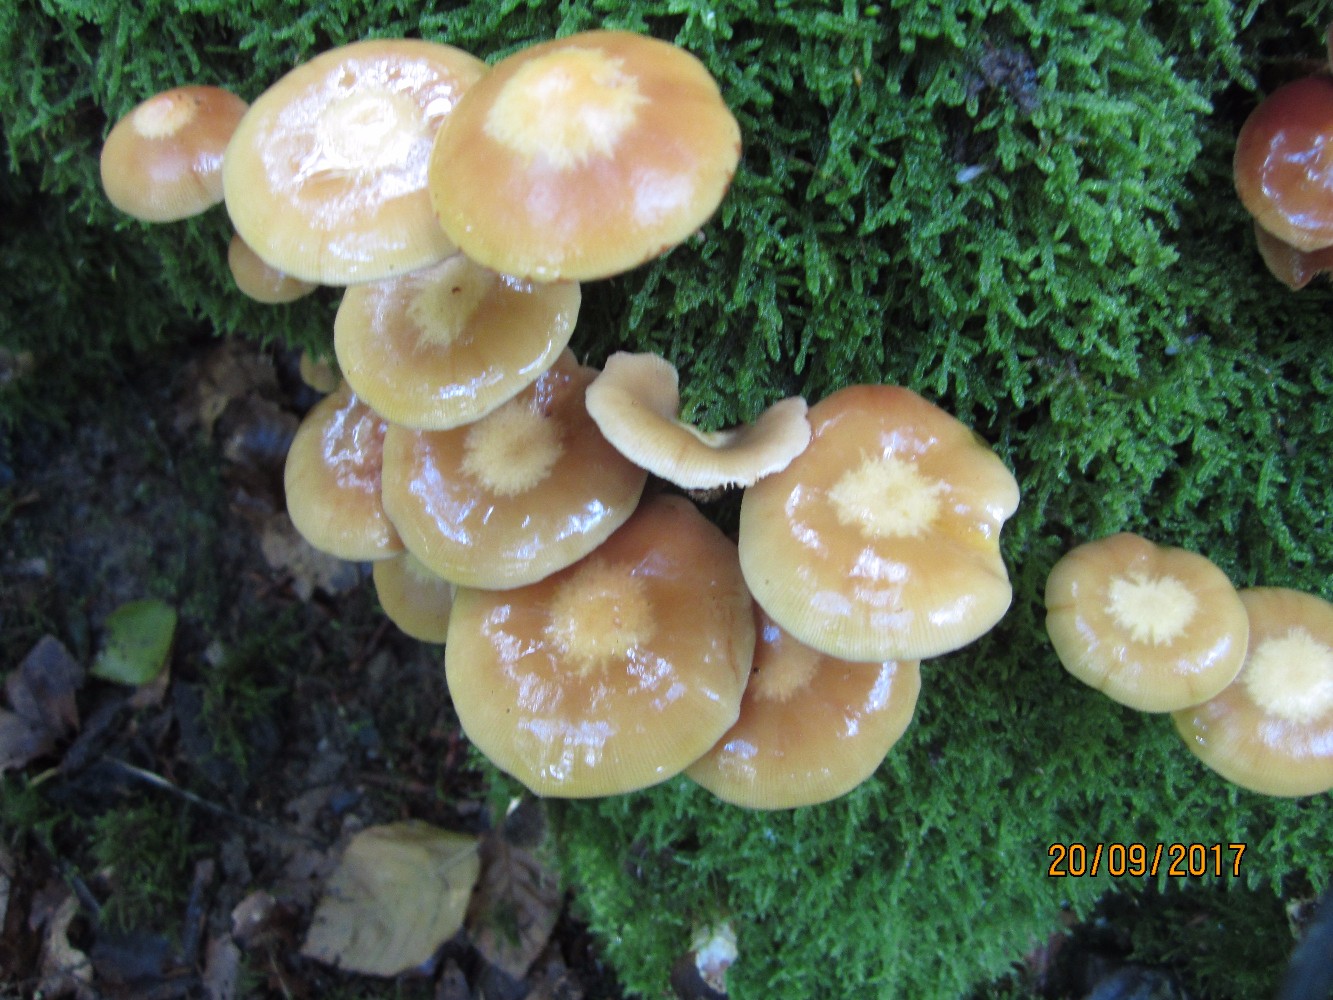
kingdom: Fungi
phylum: Basidiomycota
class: Agaricomycetes
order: Agaricales
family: Strophariaceae
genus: Kuehneromyces
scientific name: Kuehneromyces mutabilis
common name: foranderlig skælhat
